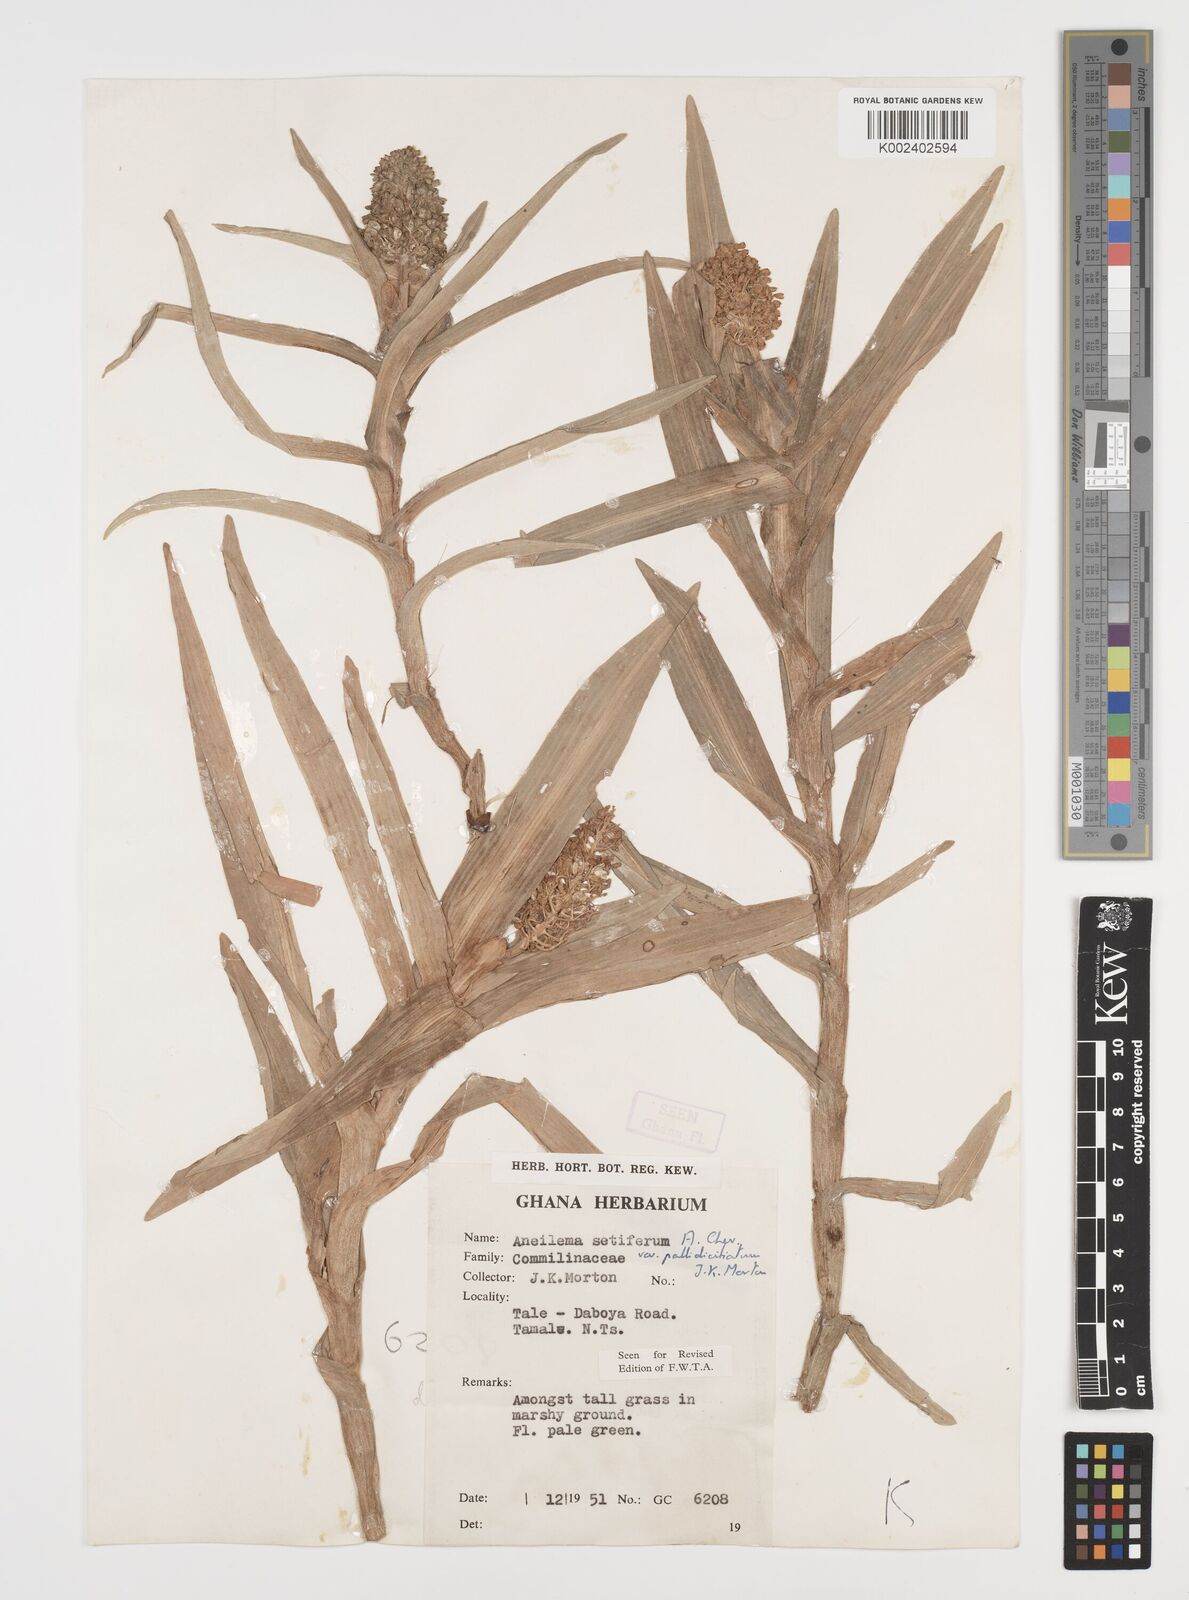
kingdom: Plantae
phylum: Tracheophyta
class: Liliopsida
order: Commelinales
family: Commelinaceae
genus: Aneilema
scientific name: Aneilema setiferum
